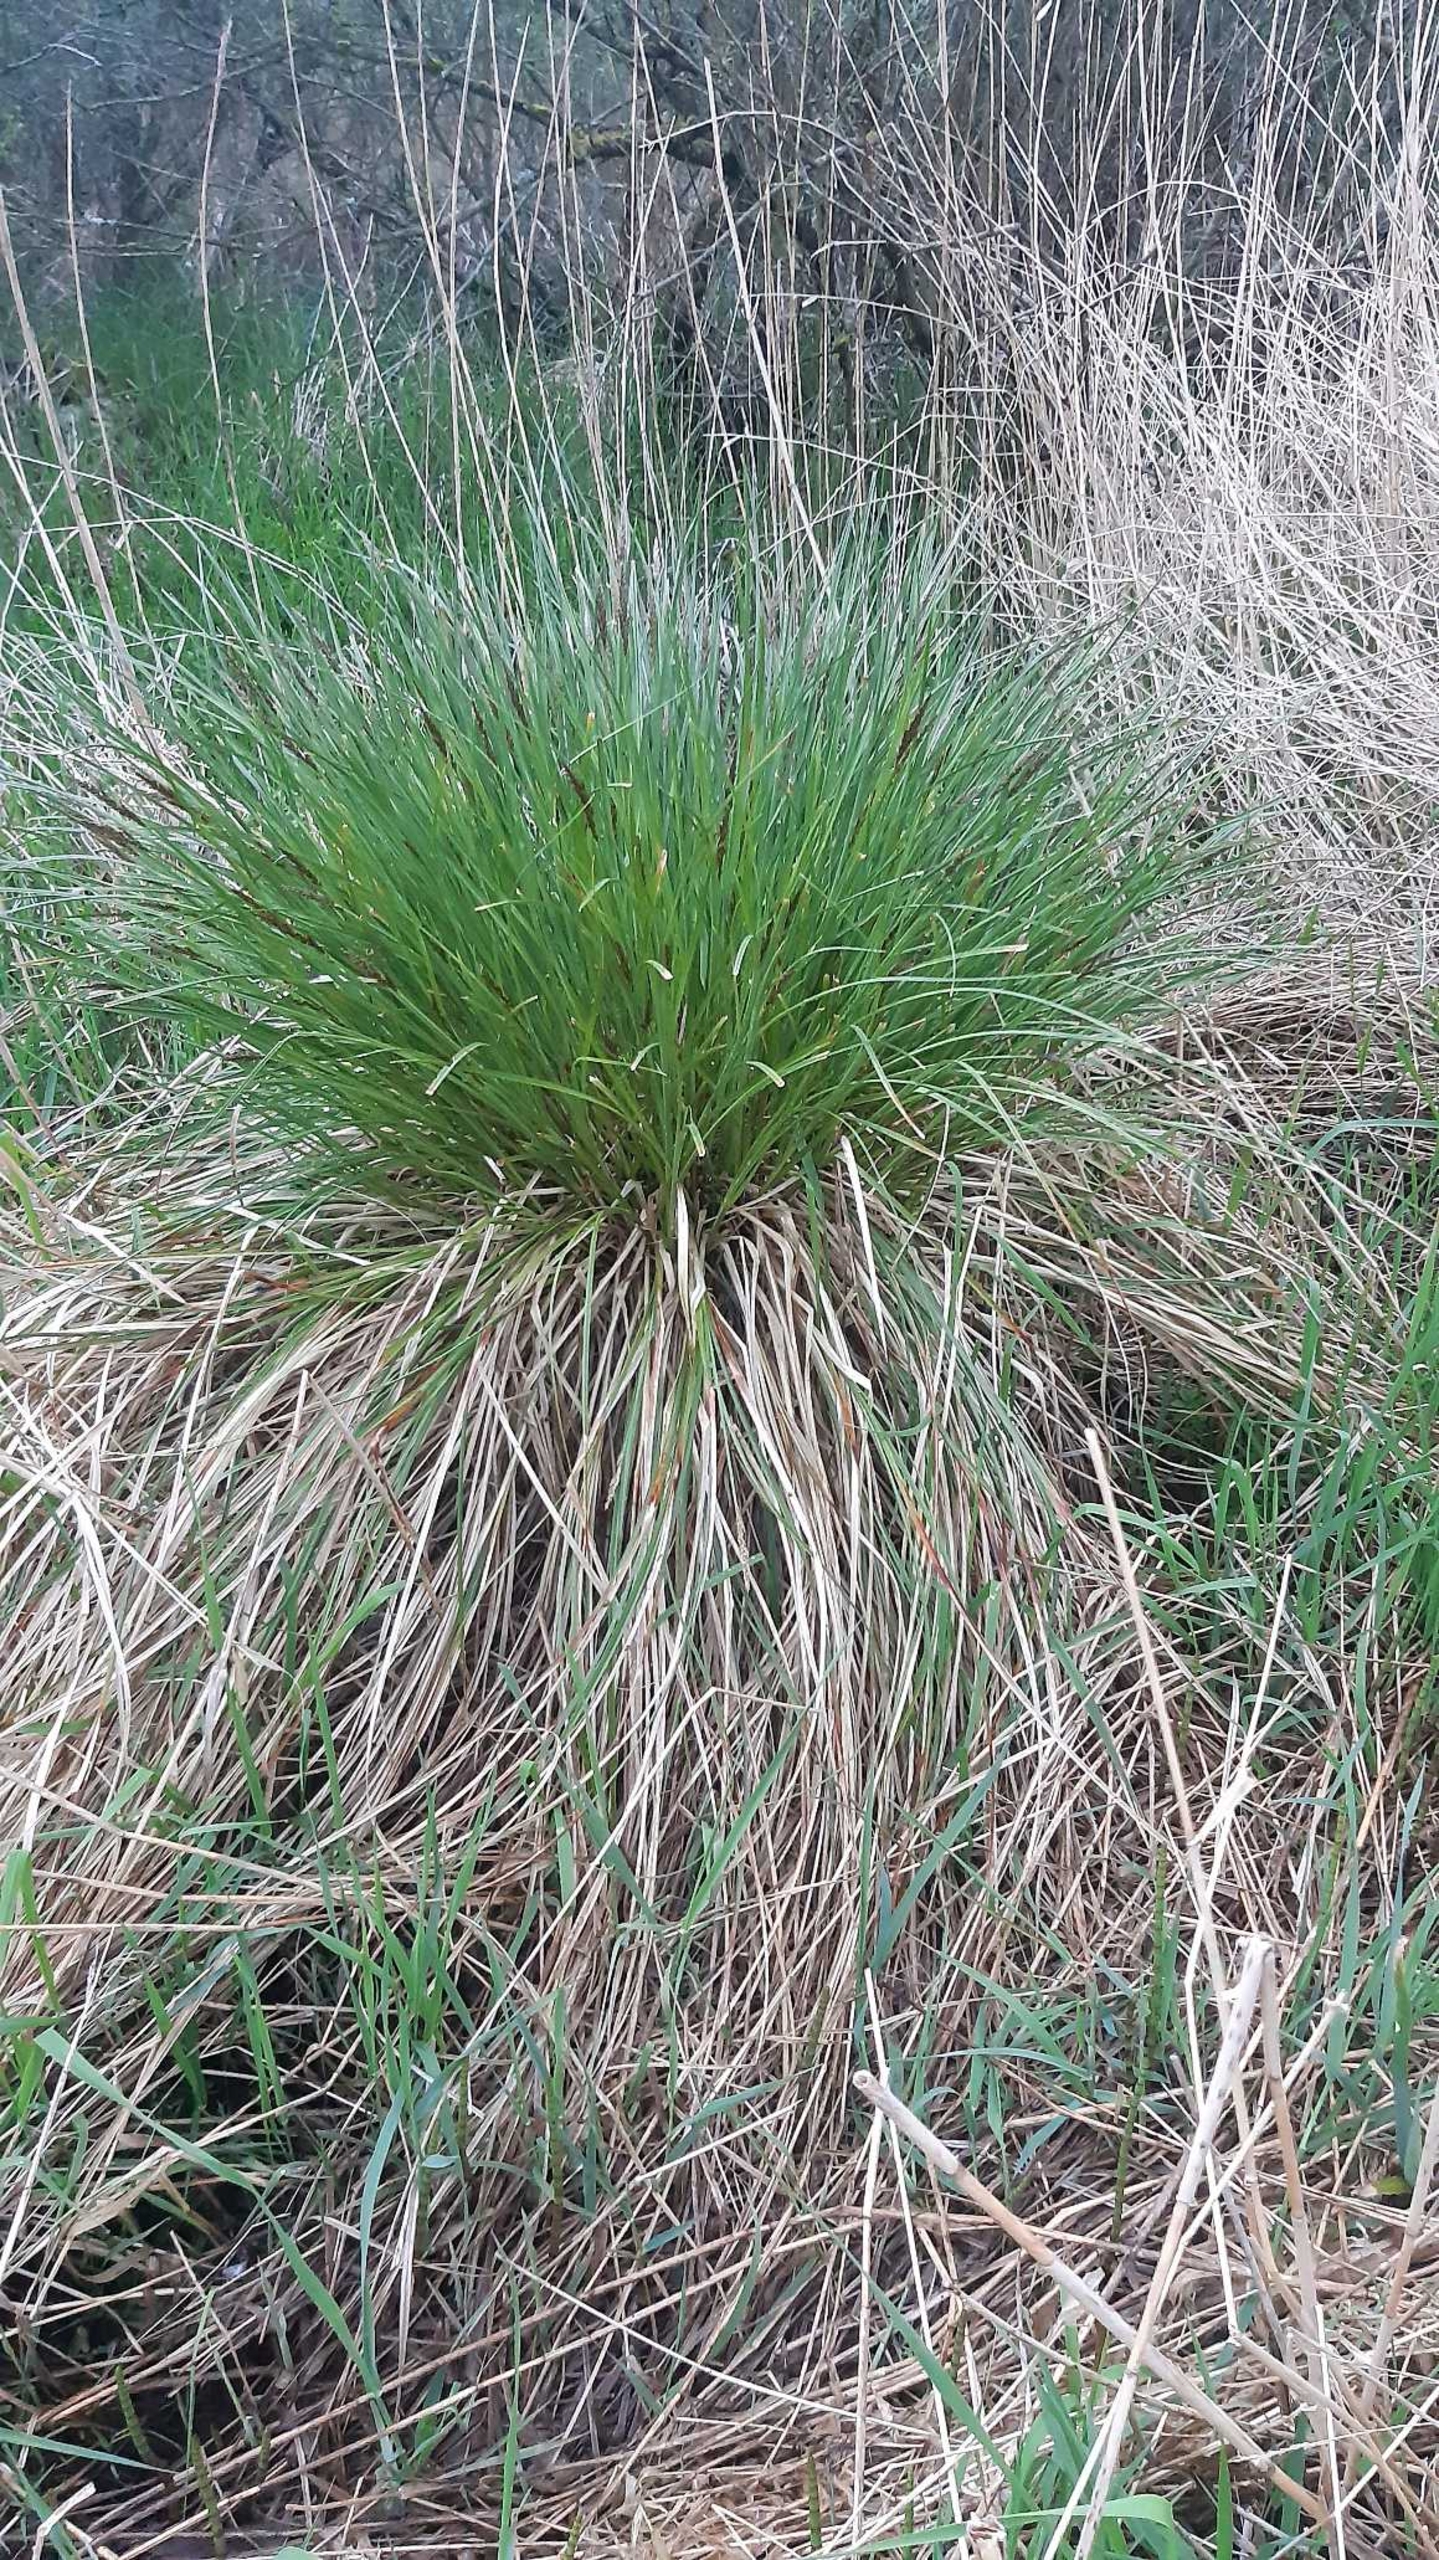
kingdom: Plantae
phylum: Tracheophyta
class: Liliopsida
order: Poales
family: Cyperaceae
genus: Carex
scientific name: Carex paniculata
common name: Top-star
